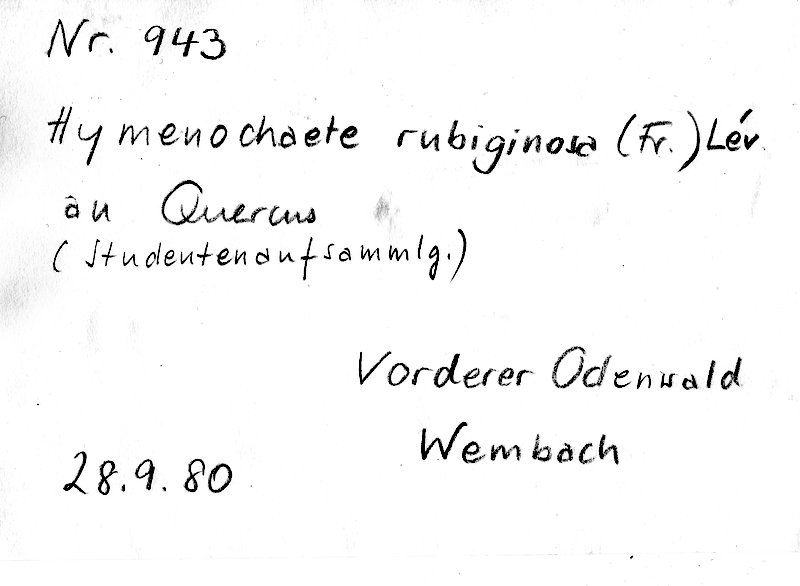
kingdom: Fungi
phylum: Basidiomycota
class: Agaricomycetes
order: Hymenochaetales
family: Hymenochaetaceae
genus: Hymenochaete
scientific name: Hymenochaete rubiginosa
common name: Oak curtain crust
